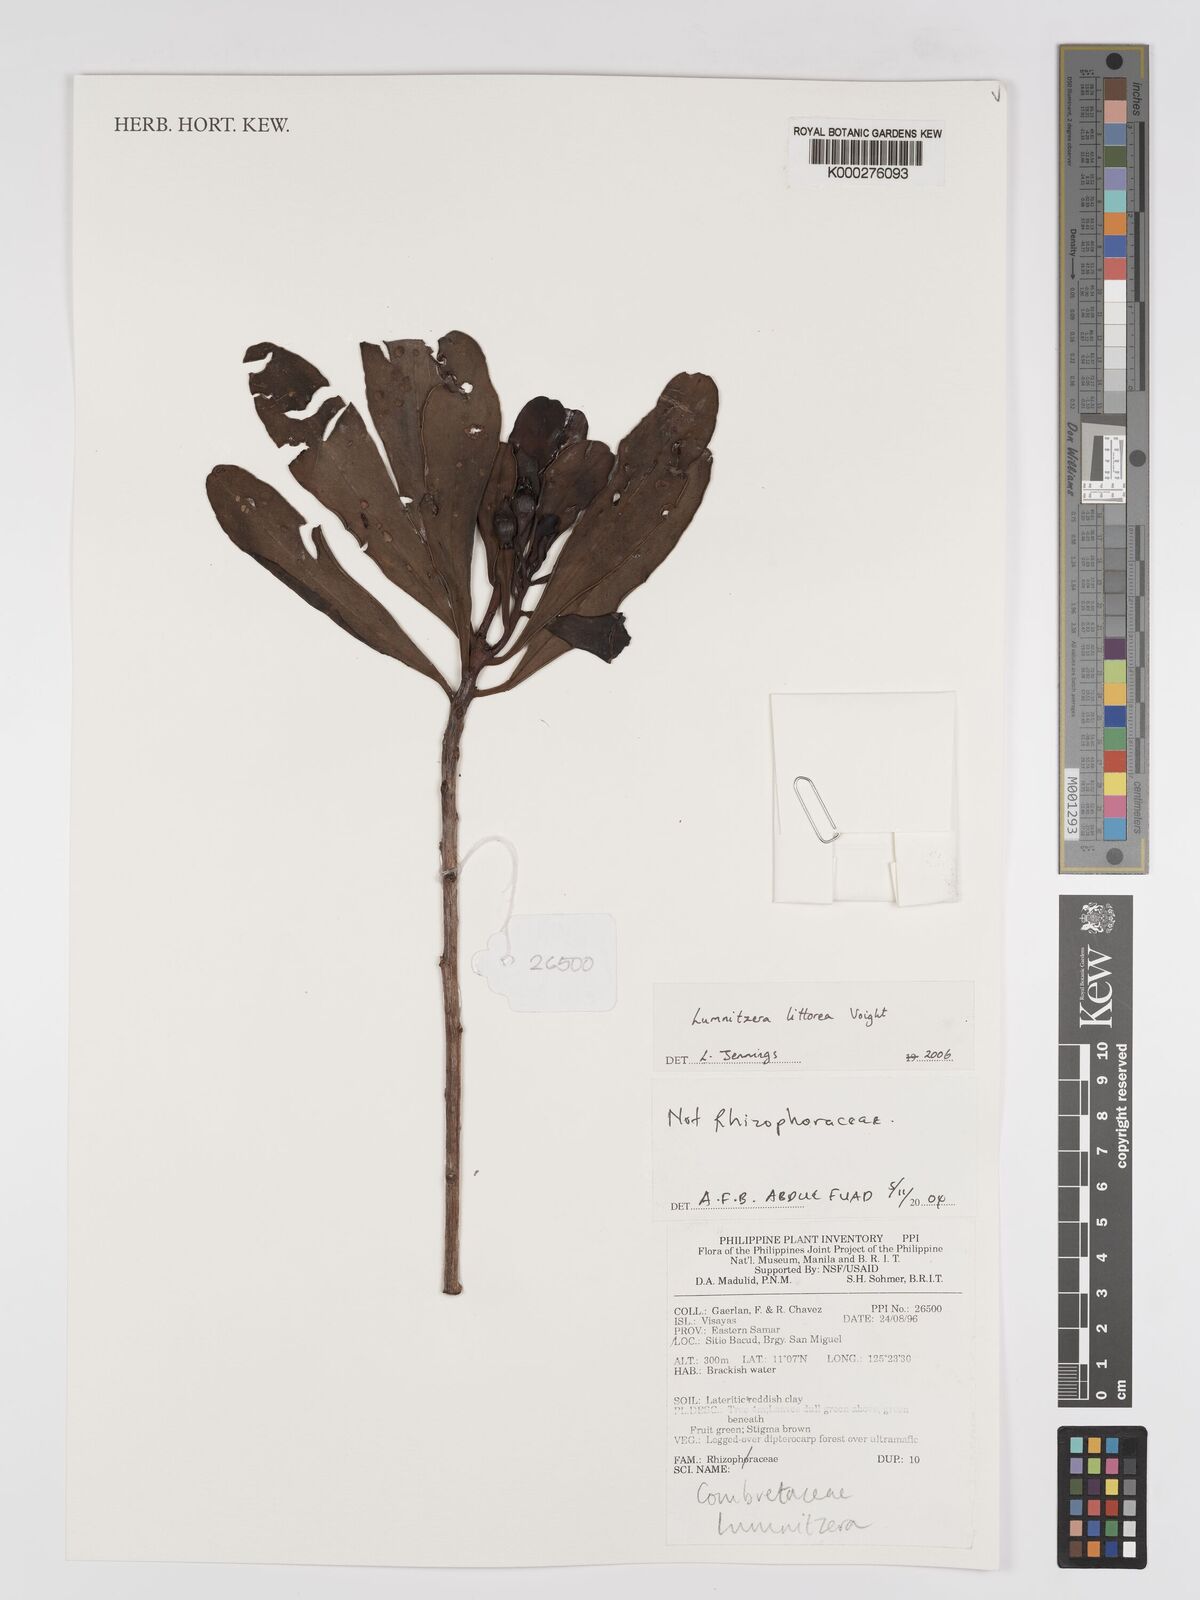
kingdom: Plantae
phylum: Tracheophyta
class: Magnoliopsida
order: Myrtales
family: Combretaceae
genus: Lumnitzera
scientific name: Lumnitzera littorea
